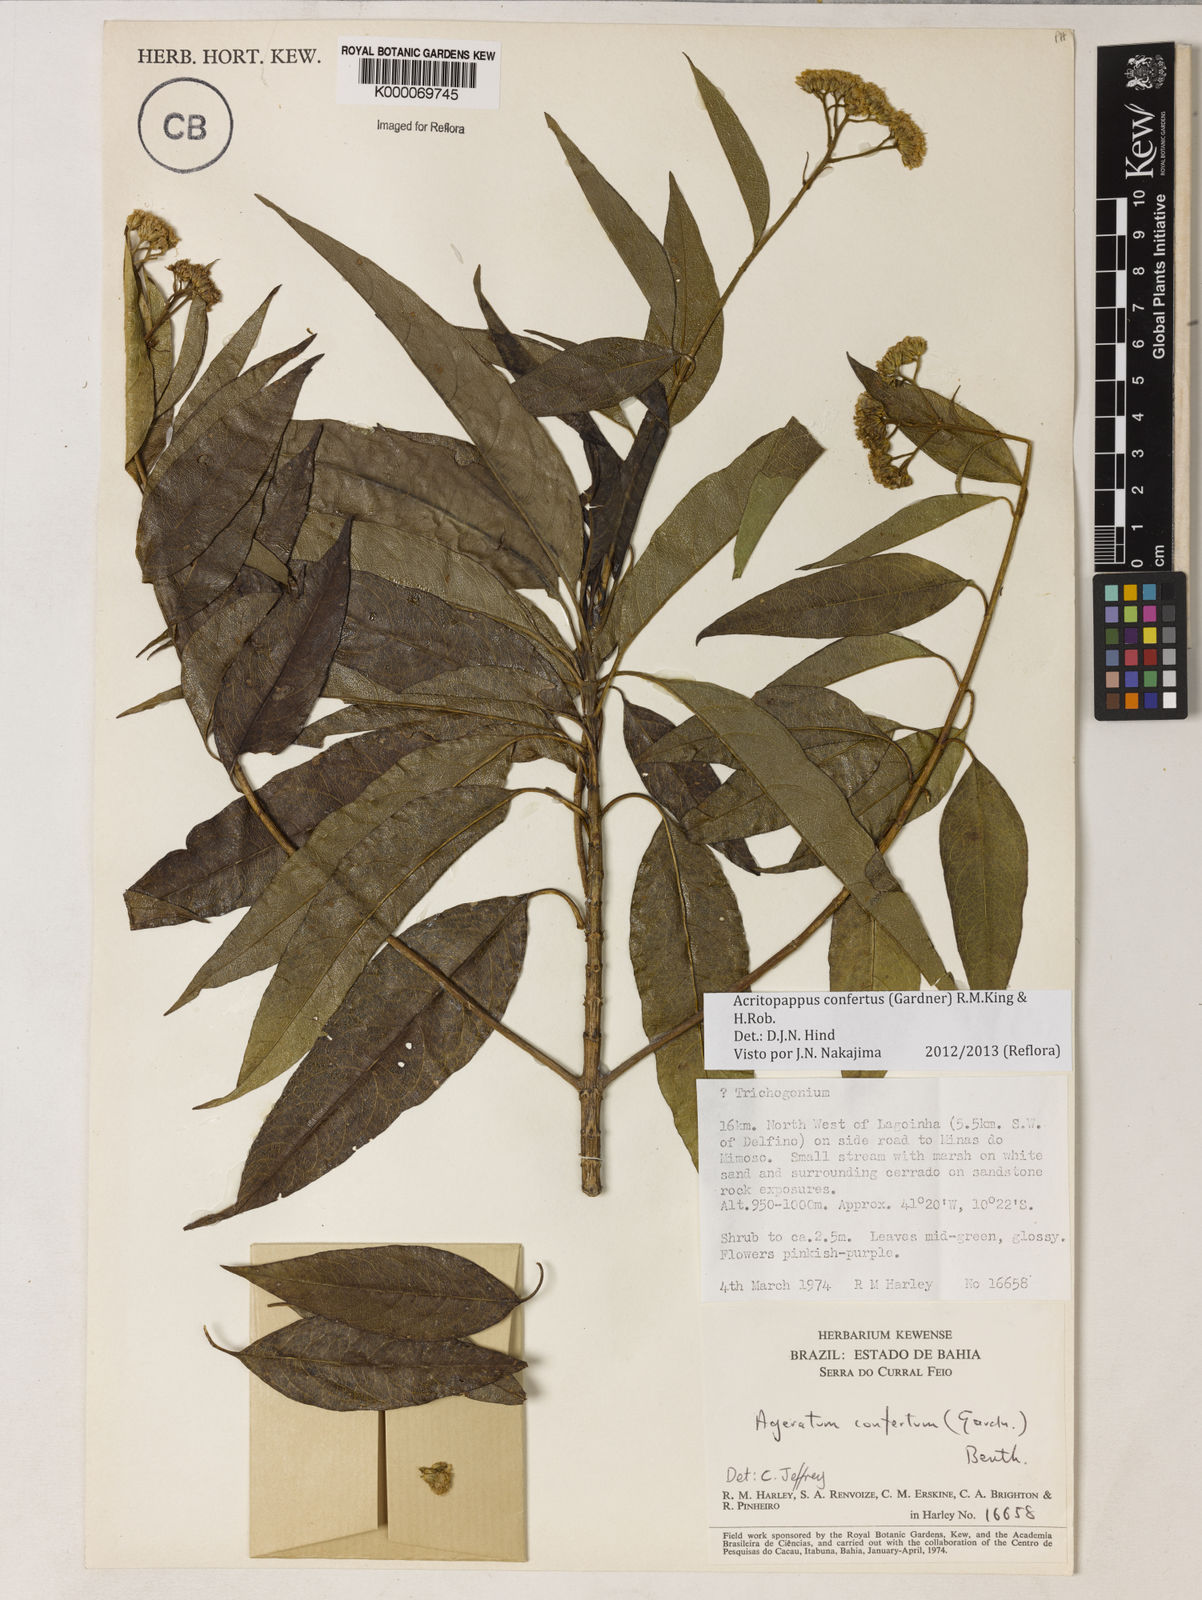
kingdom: Plantae
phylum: Tracheophyta
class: Magnoliopsida
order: Asterales
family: Asteraceae
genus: Acritopappus
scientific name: Acritopappus confertus
